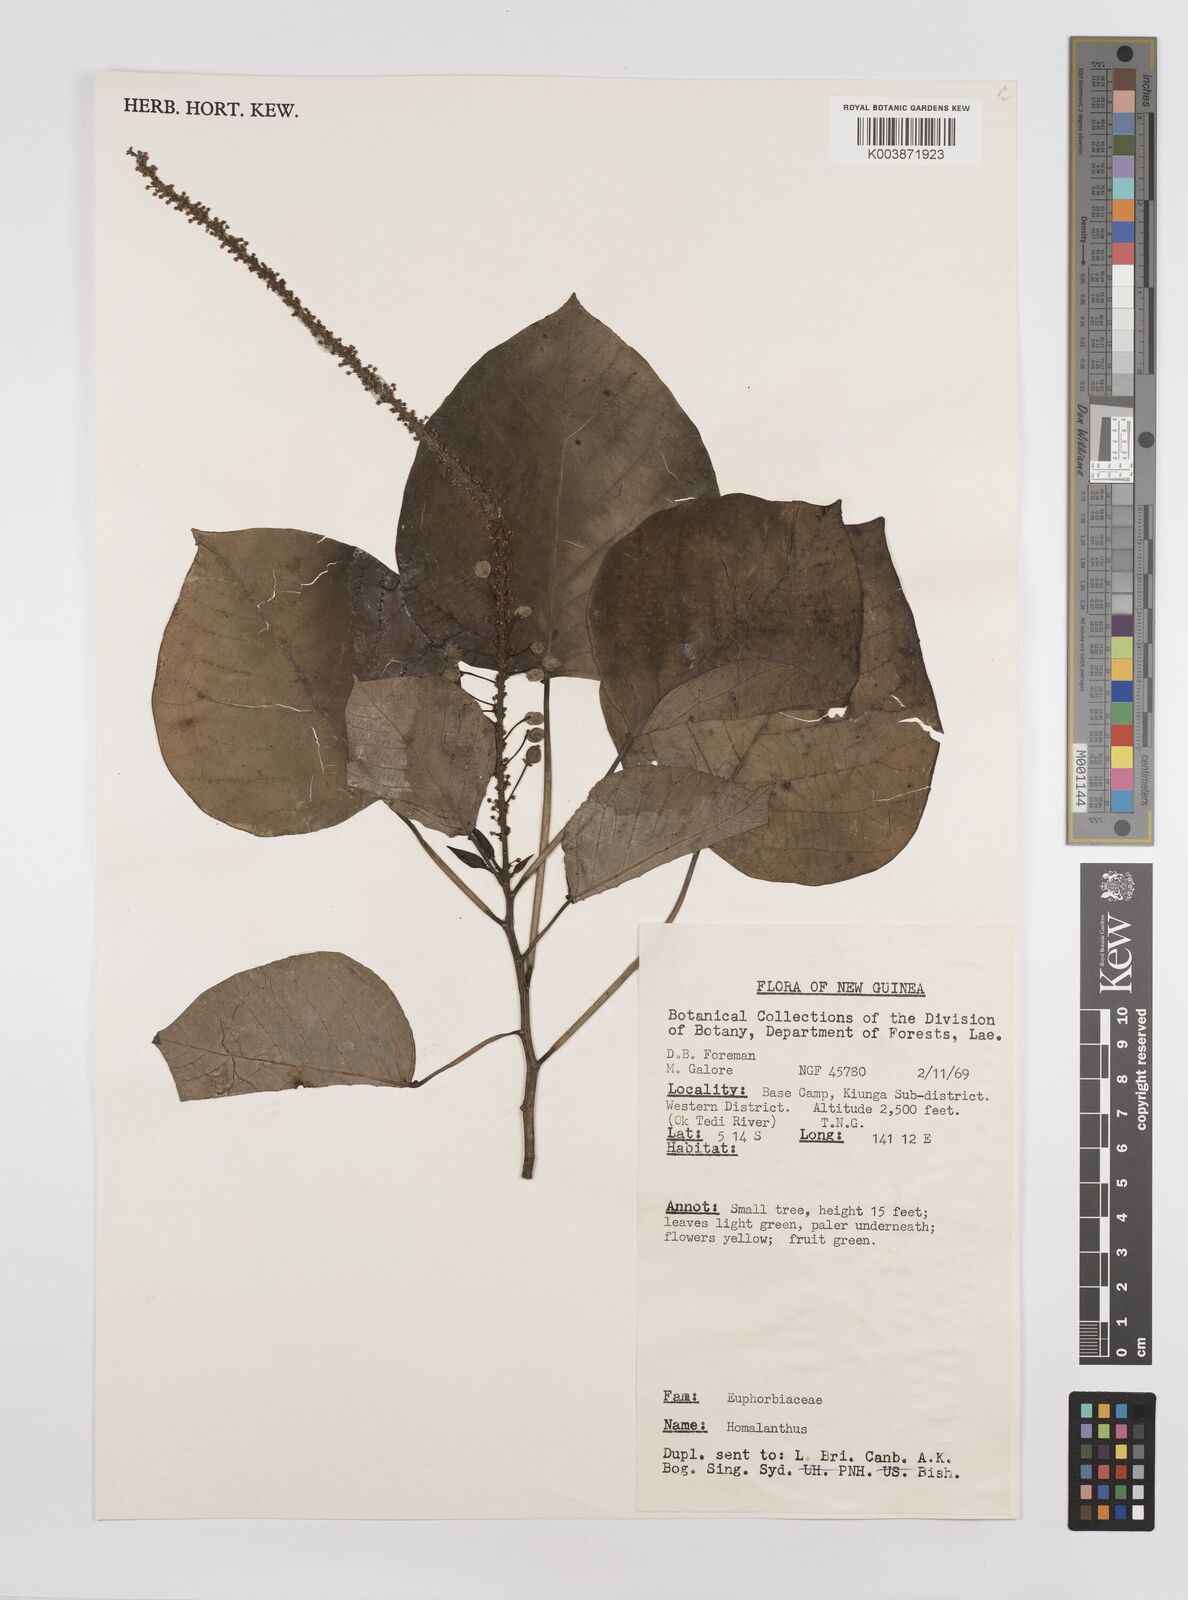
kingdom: Plantae
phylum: Tracheophyta
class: Magnoliopsida
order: Malpighiales
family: Euphorbiaceae
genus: Homalanthus
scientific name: Homalanthus novoguineensis
